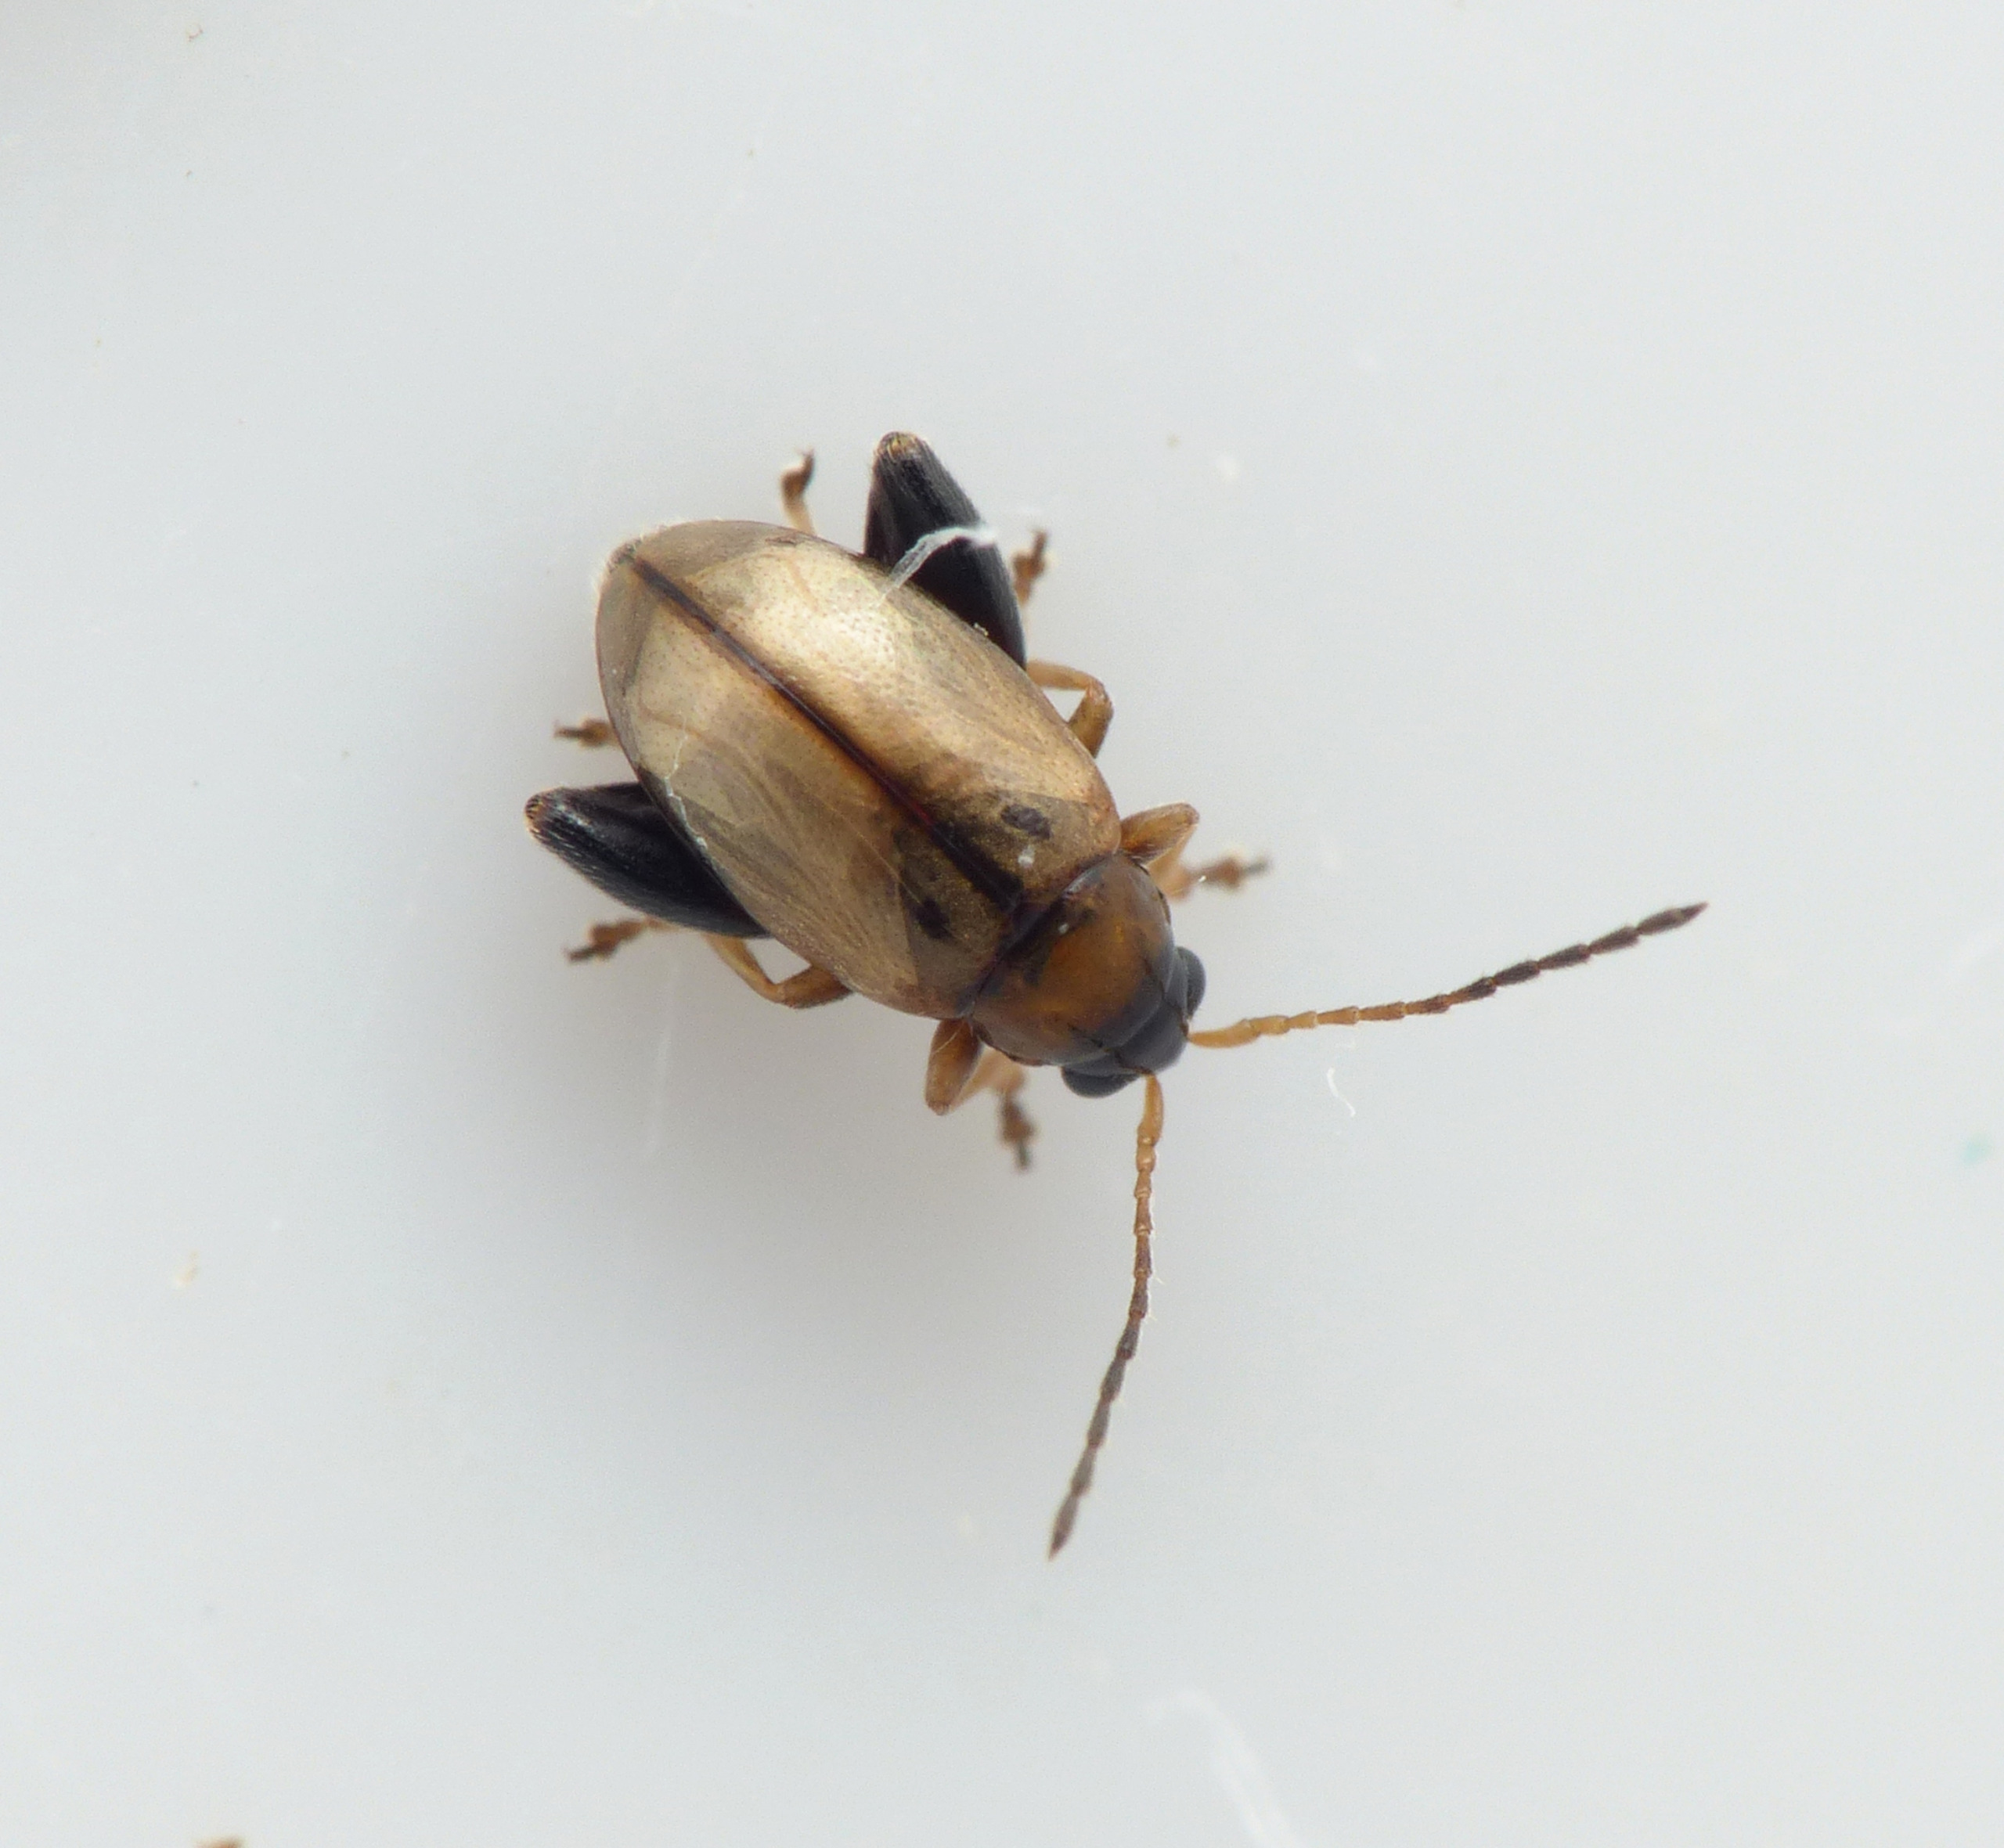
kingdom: Animalia
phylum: Arthropoda
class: Insecta
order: Coleoptera
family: Chrysomelidae
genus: Longitarsus
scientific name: Longitarsus melanocephalus
